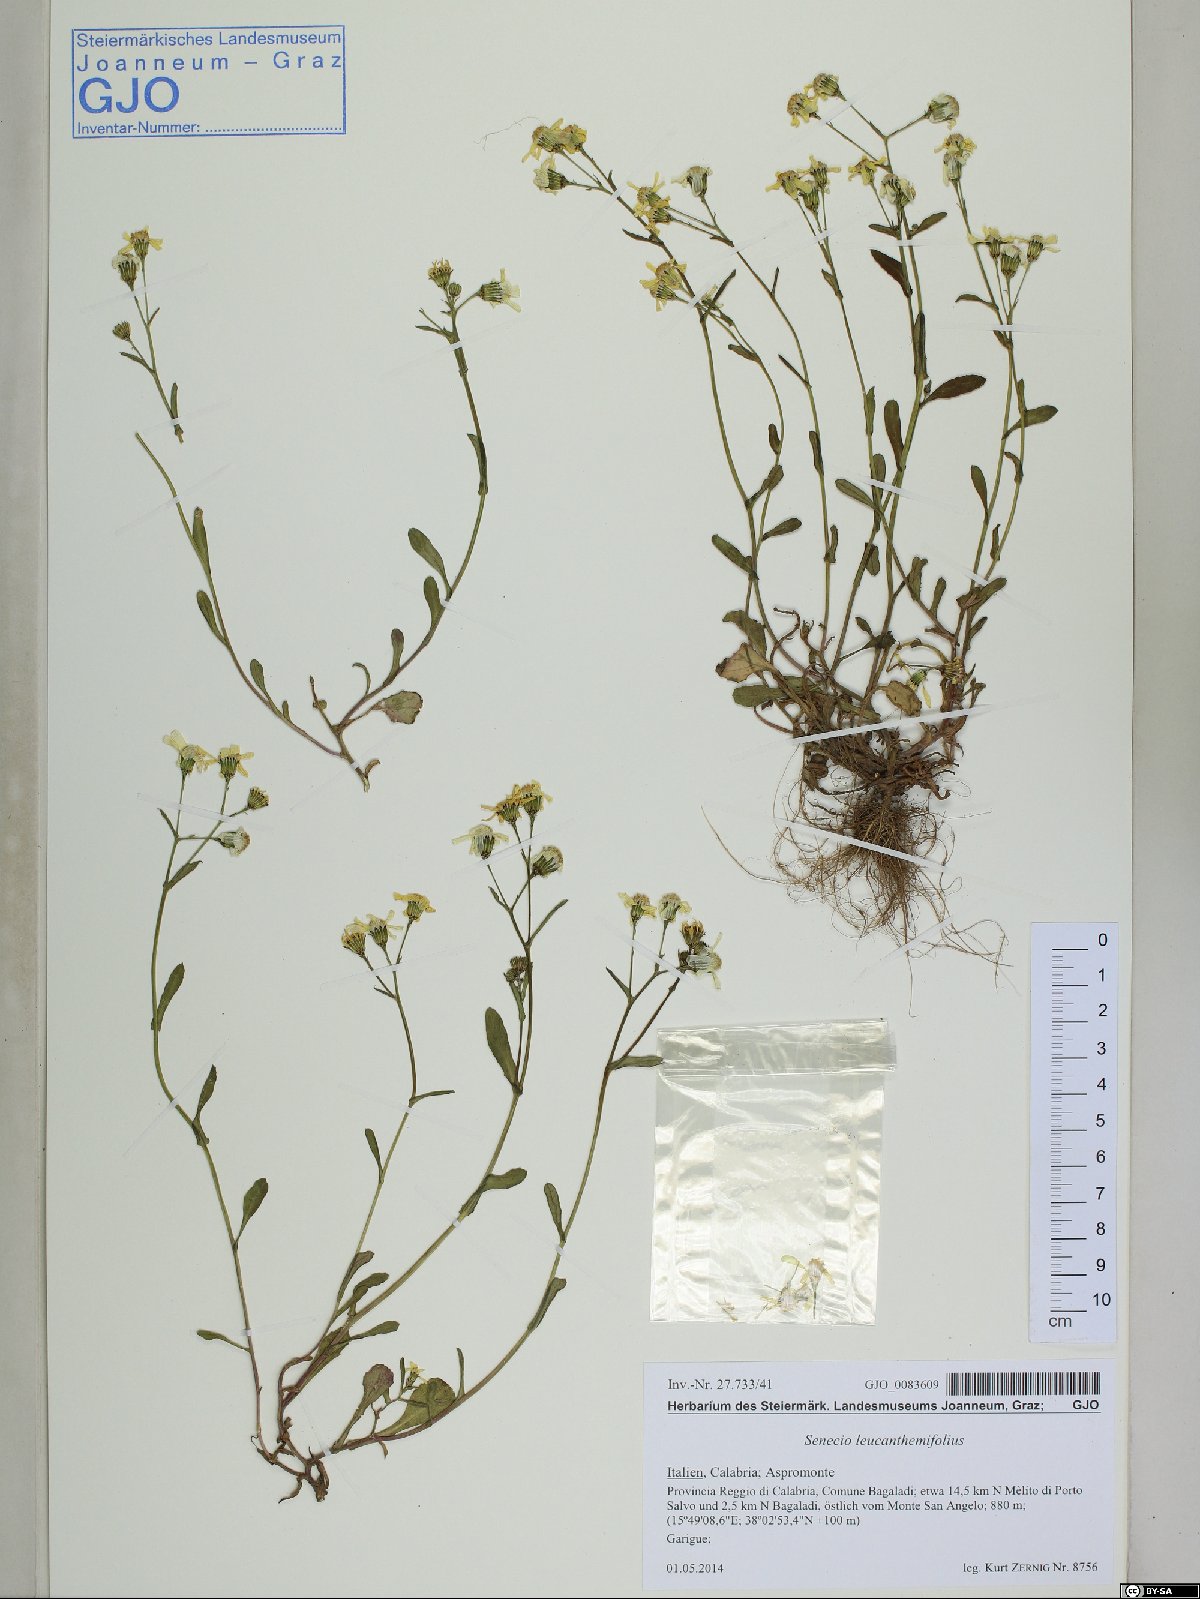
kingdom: Plantae
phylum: Tracheophyta
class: Magnoliopsida
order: Asterales
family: Asteraceae
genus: Senecio
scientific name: Senecio leucanthemifolius
